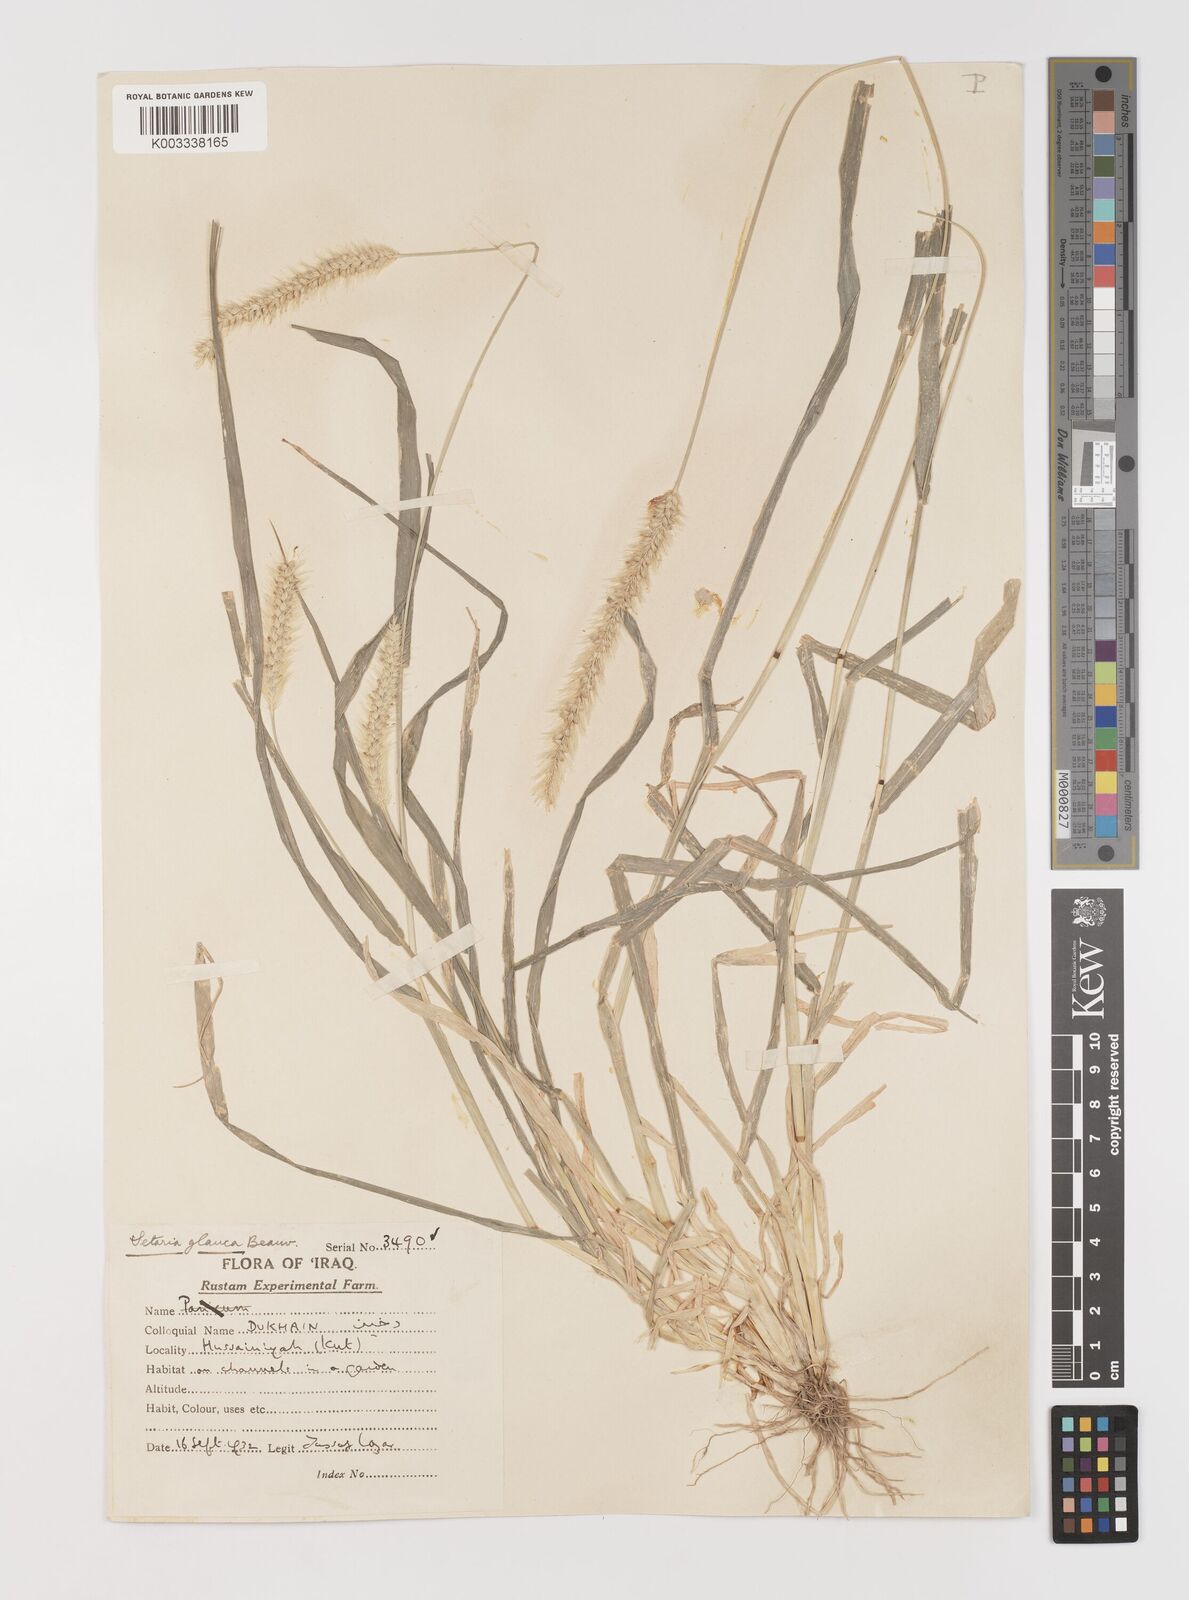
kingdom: Plantae
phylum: Tracheophyta
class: Liliopsida
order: Poales
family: Poaceae
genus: Setaria
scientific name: Setaria pumila
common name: Yellow bristle-grass
